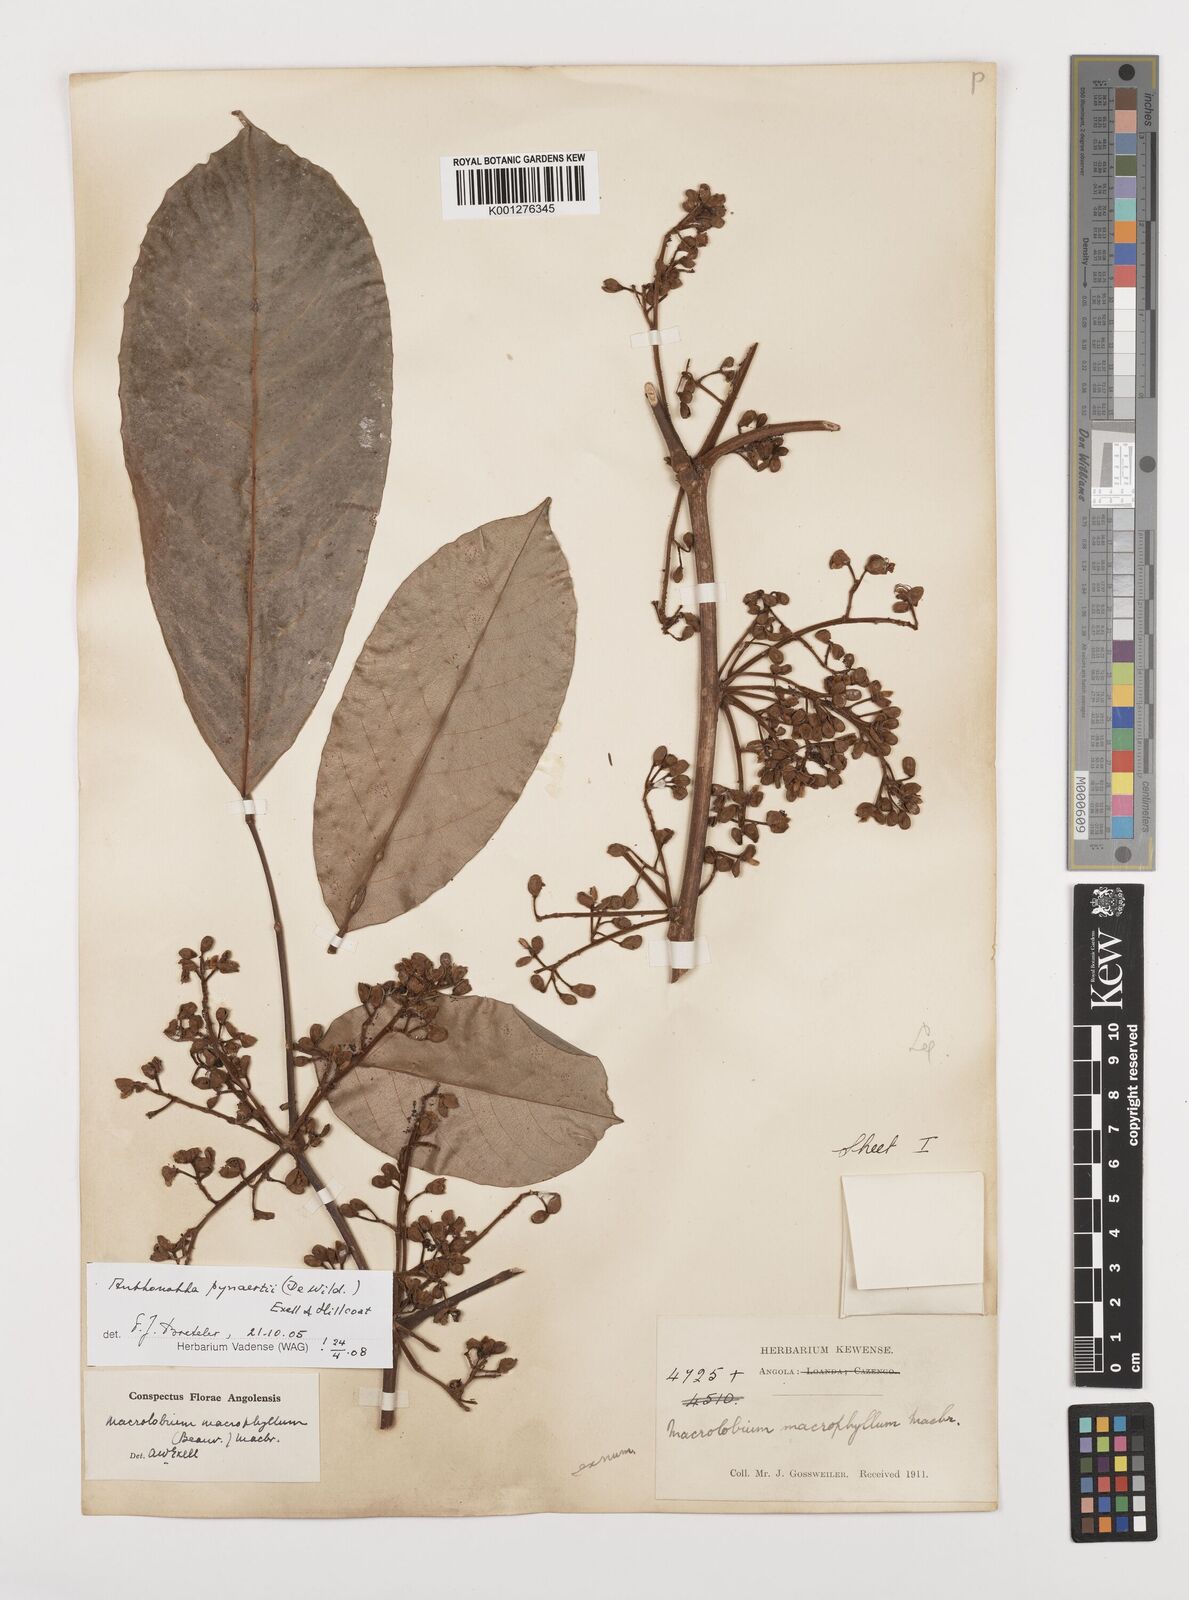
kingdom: Plantae
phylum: Tracheophyta
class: Magnoliopsida
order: Fabales
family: Fabaceae
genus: Anthonotha
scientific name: Anthonotha pynaertii
